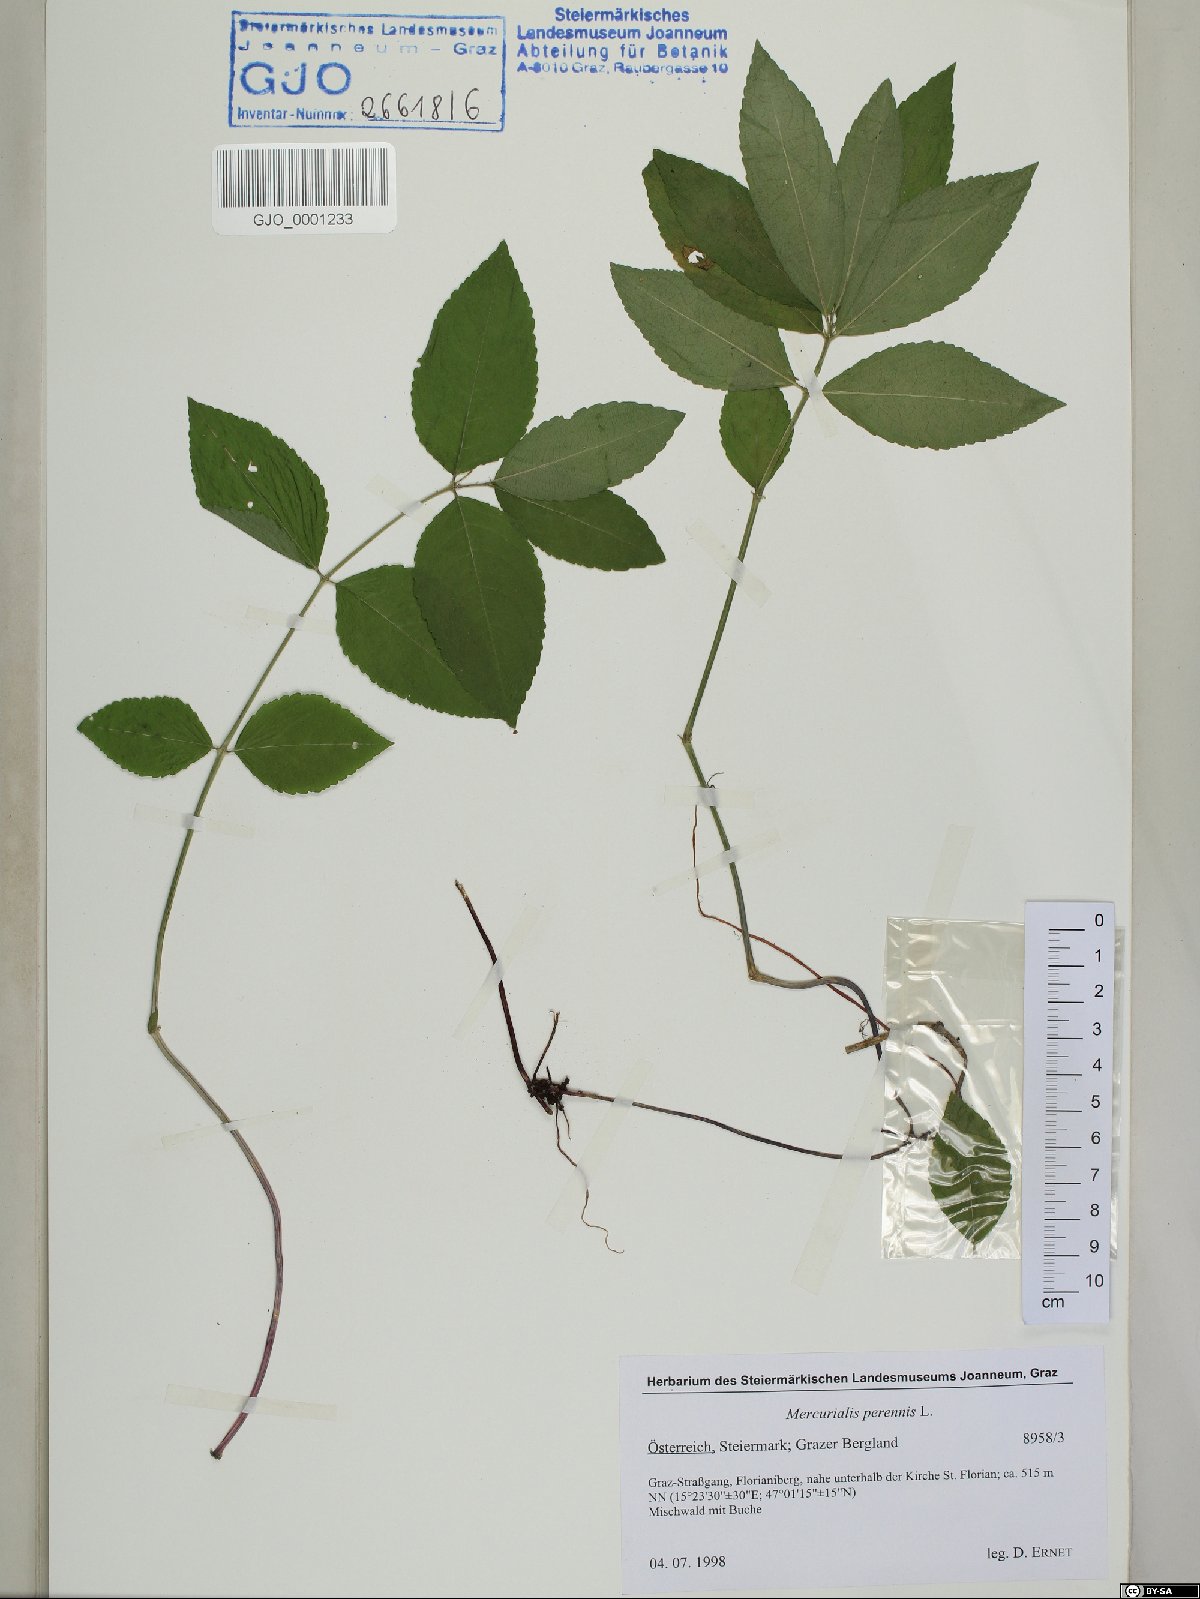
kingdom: Plantae
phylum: Tracheophyta
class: Magnoliopsida
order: Malpighiales
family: Euphorbiaceae
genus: Mercurialis
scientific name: Mercurialis perennis
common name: Dog mercury
